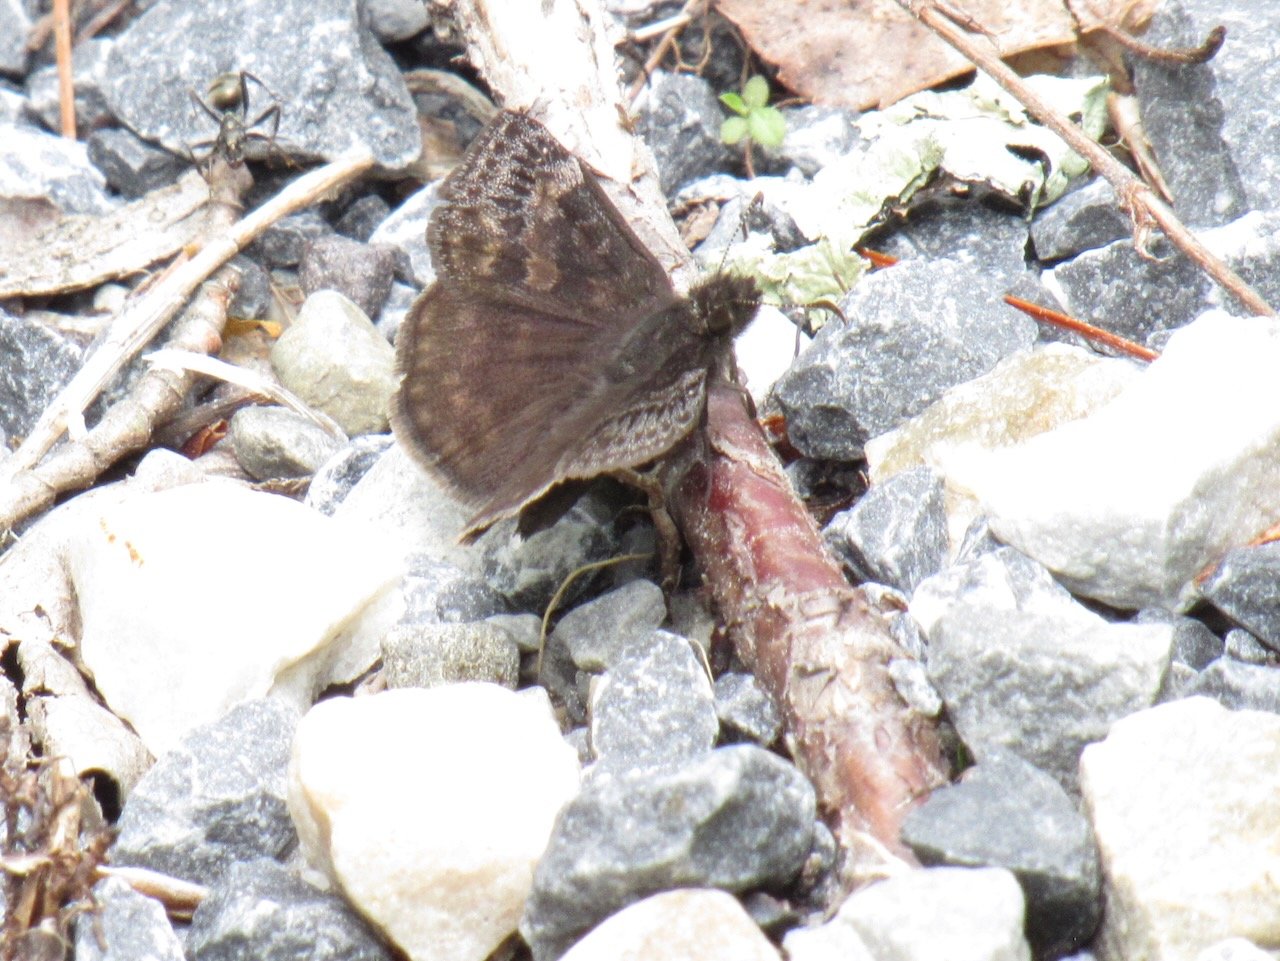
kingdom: Animalia
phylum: Arthropoda
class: Insecta
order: Lepidoptera
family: Hesperiidae
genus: Gesta
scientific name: Gesta
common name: Wild Indigo Duskywing
